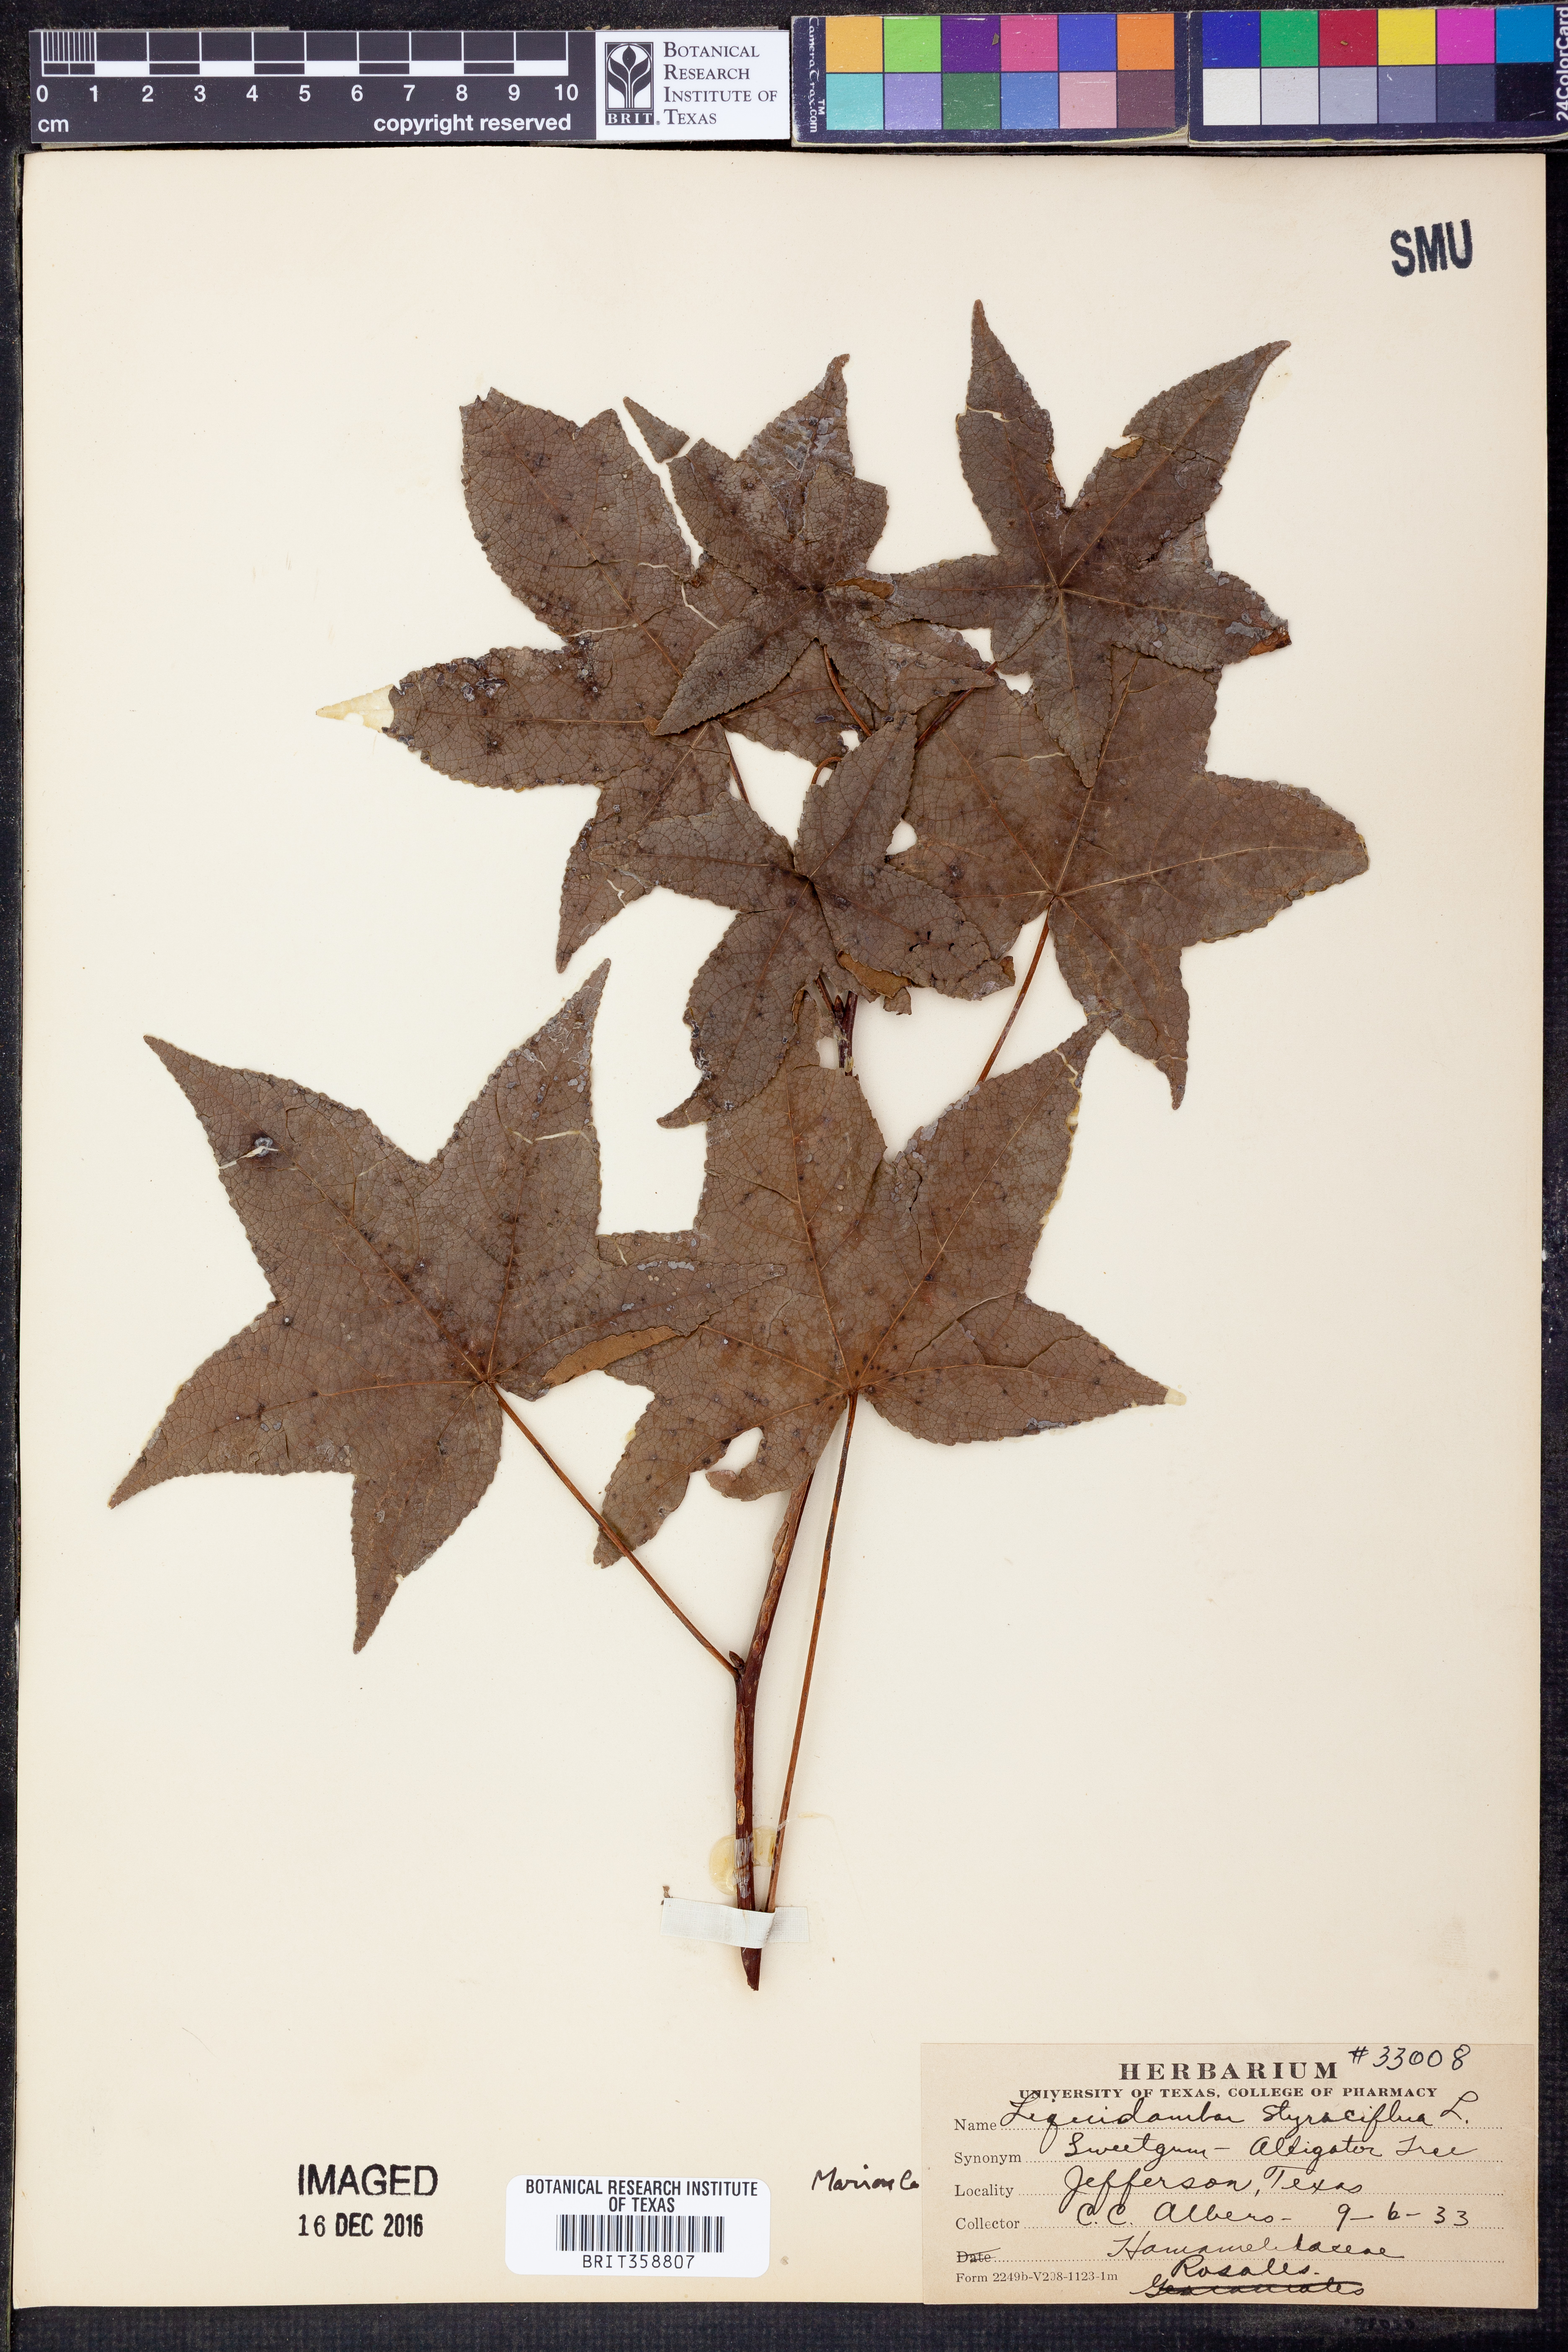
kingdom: Plantae
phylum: Tracheophyta
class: Magnoliopsida
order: Saxifragales
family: Altingiaceae
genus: Liquidambar
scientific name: Liquidambar styraciflua
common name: Sweet gum
